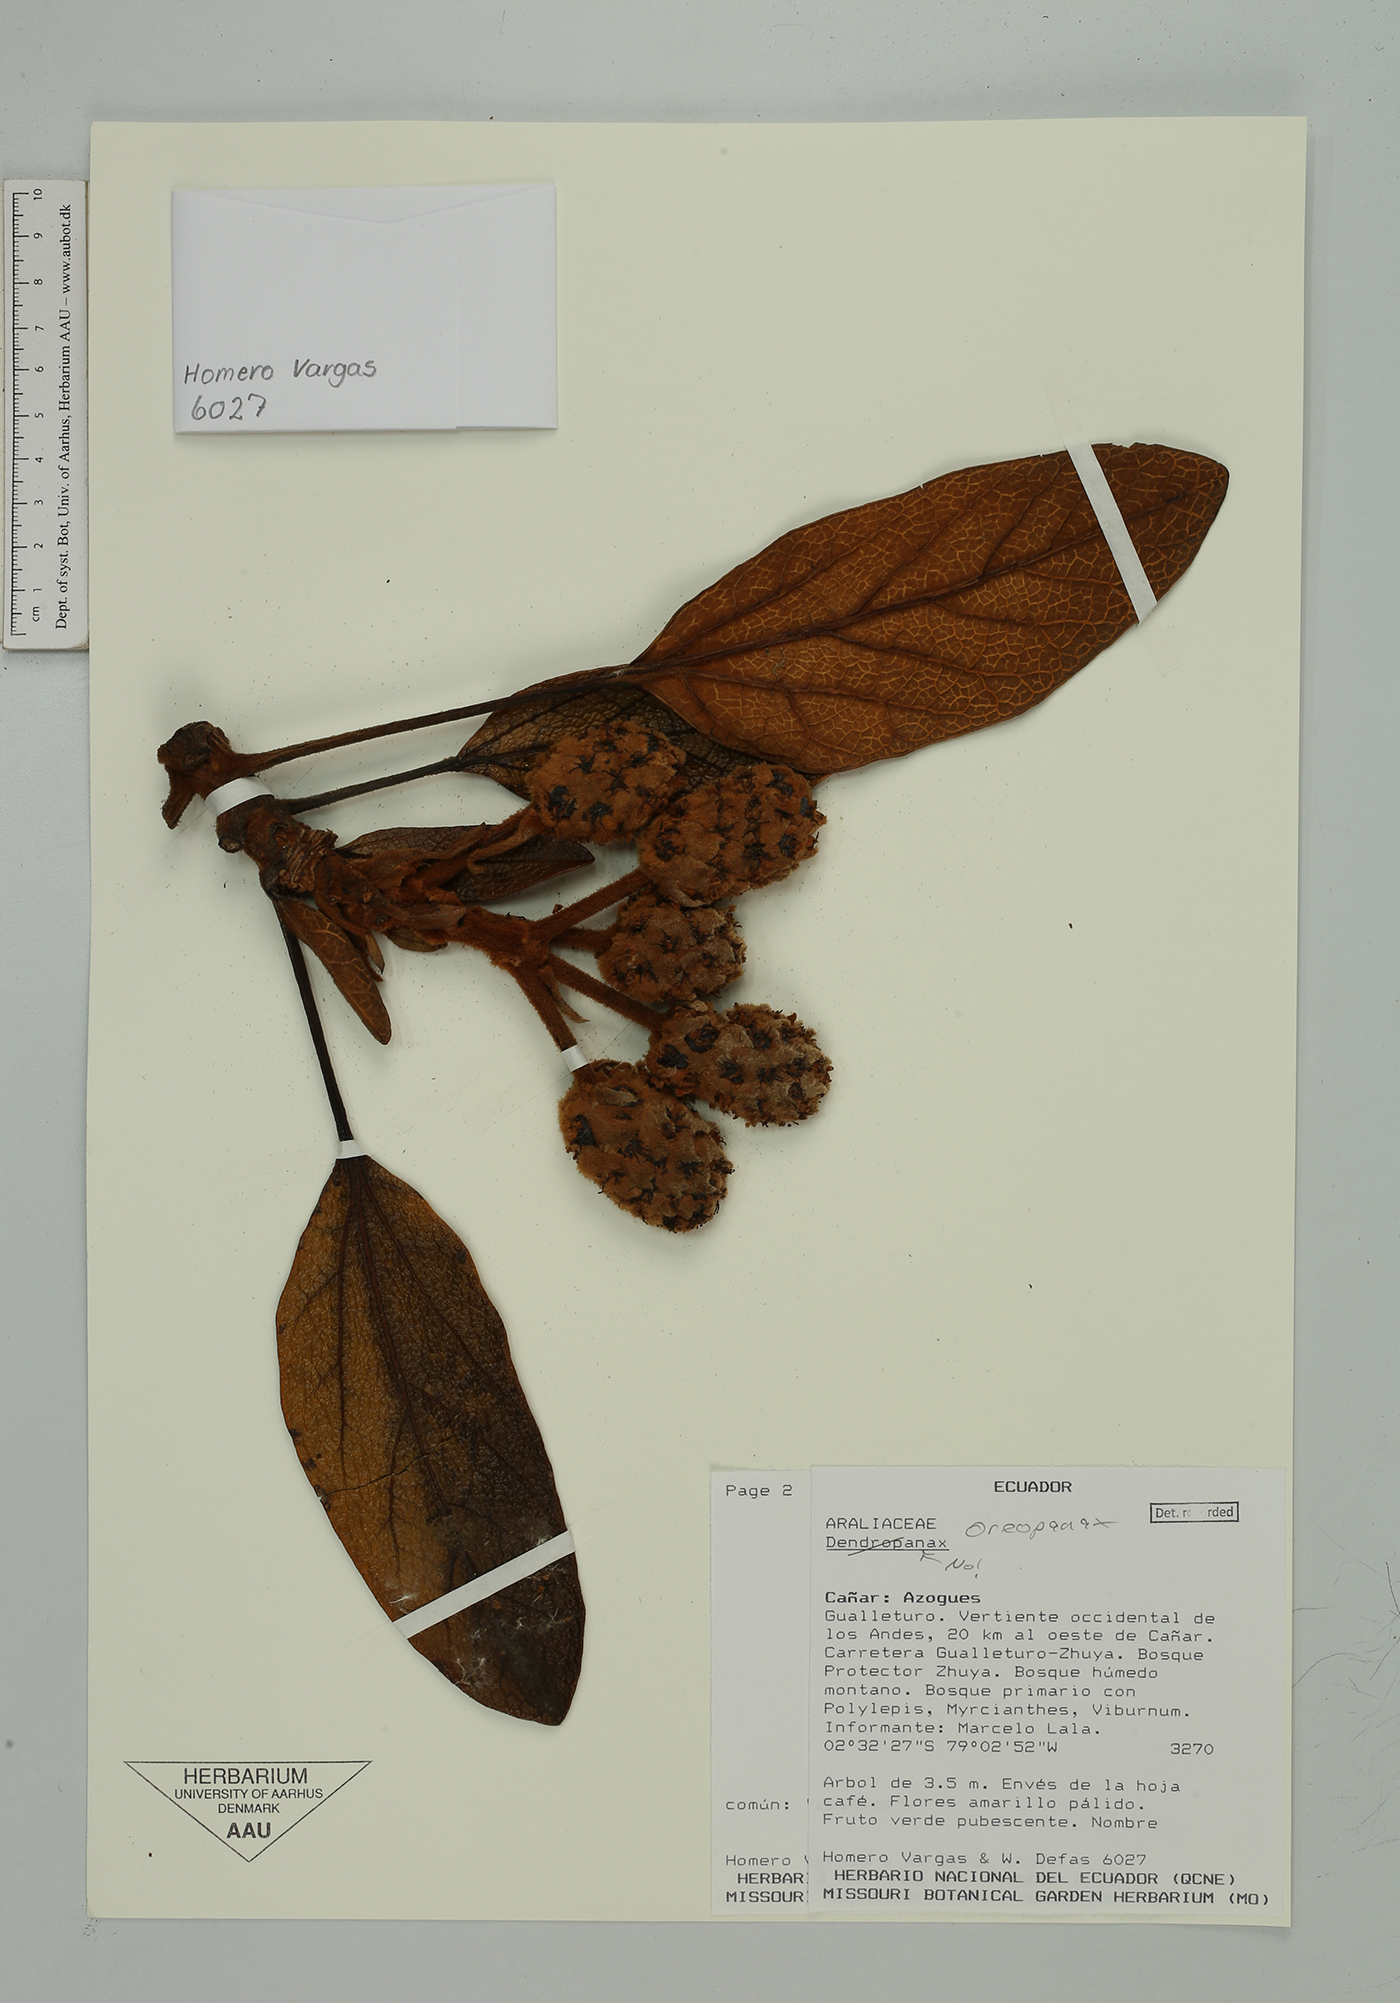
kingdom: Plantae
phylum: Tracheophyta
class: Magnoliopsida
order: Apiales
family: Araliaceae
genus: Oreopanax
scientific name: Oreopanax
